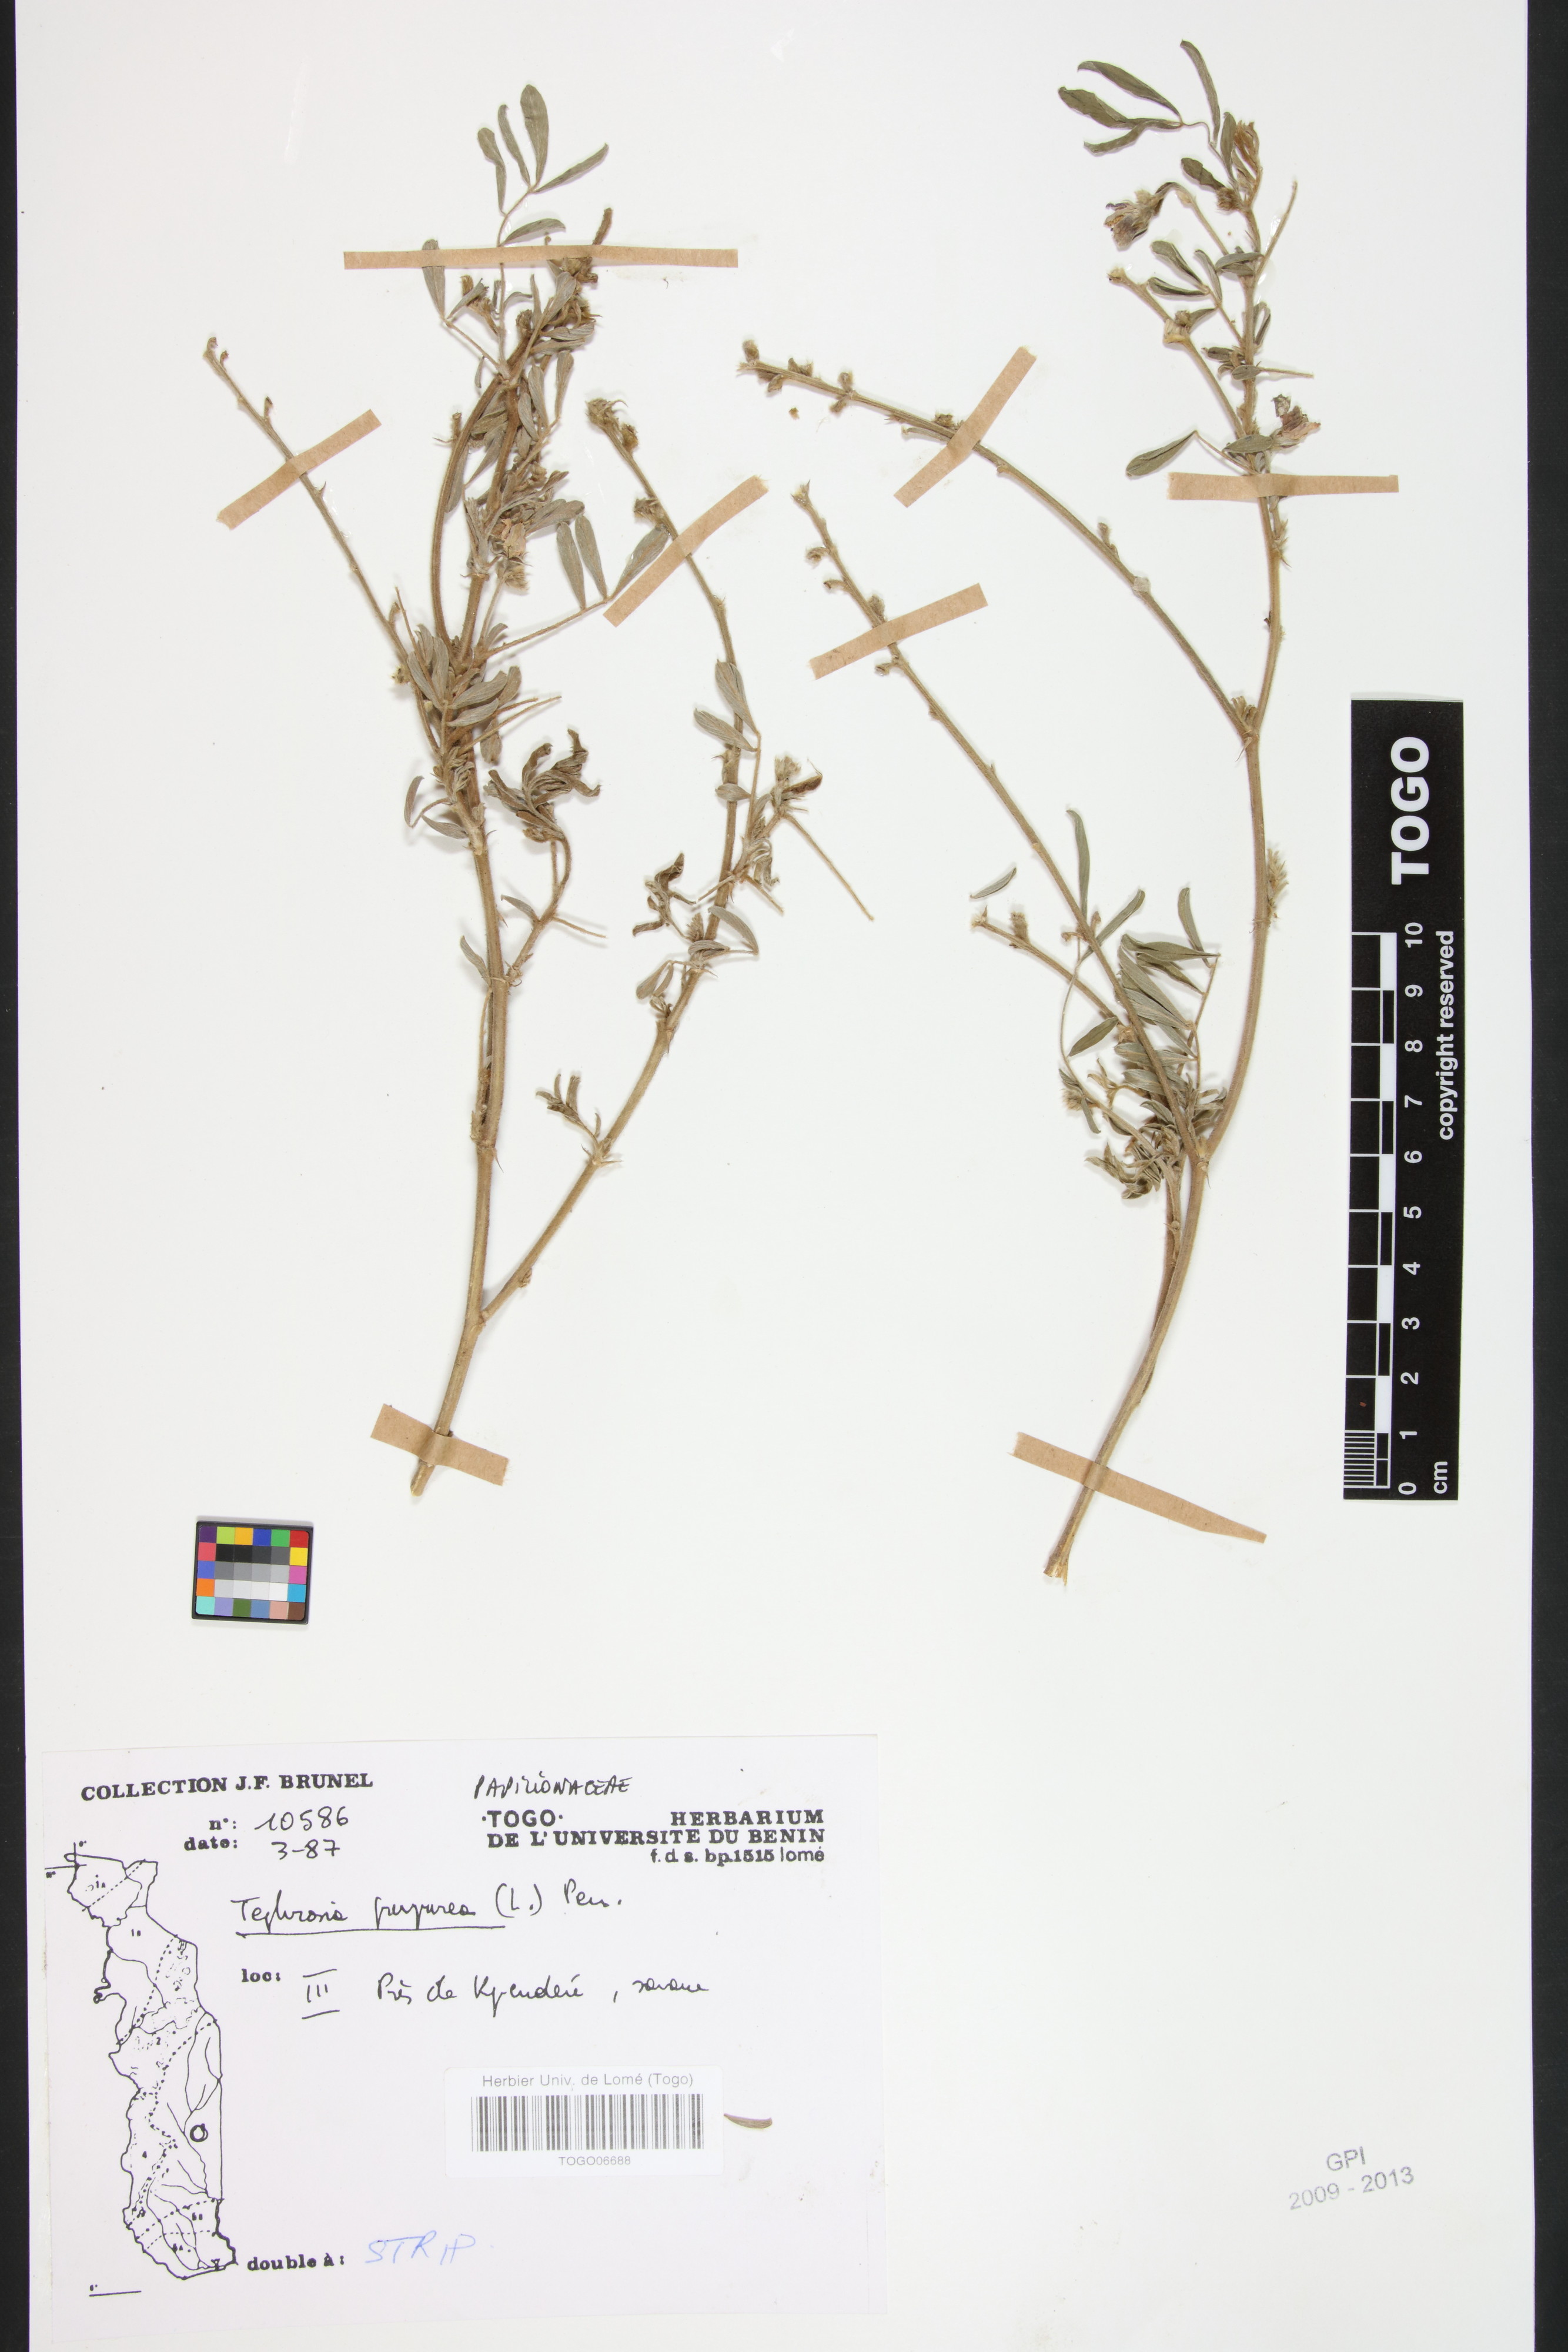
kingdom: Plantae
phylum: Tracheophyta
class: Magnoliopsida
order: Fabales
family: Fabaceae
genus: Tephrosia
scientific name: Tephrosia purpurea
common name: Fishpoison
